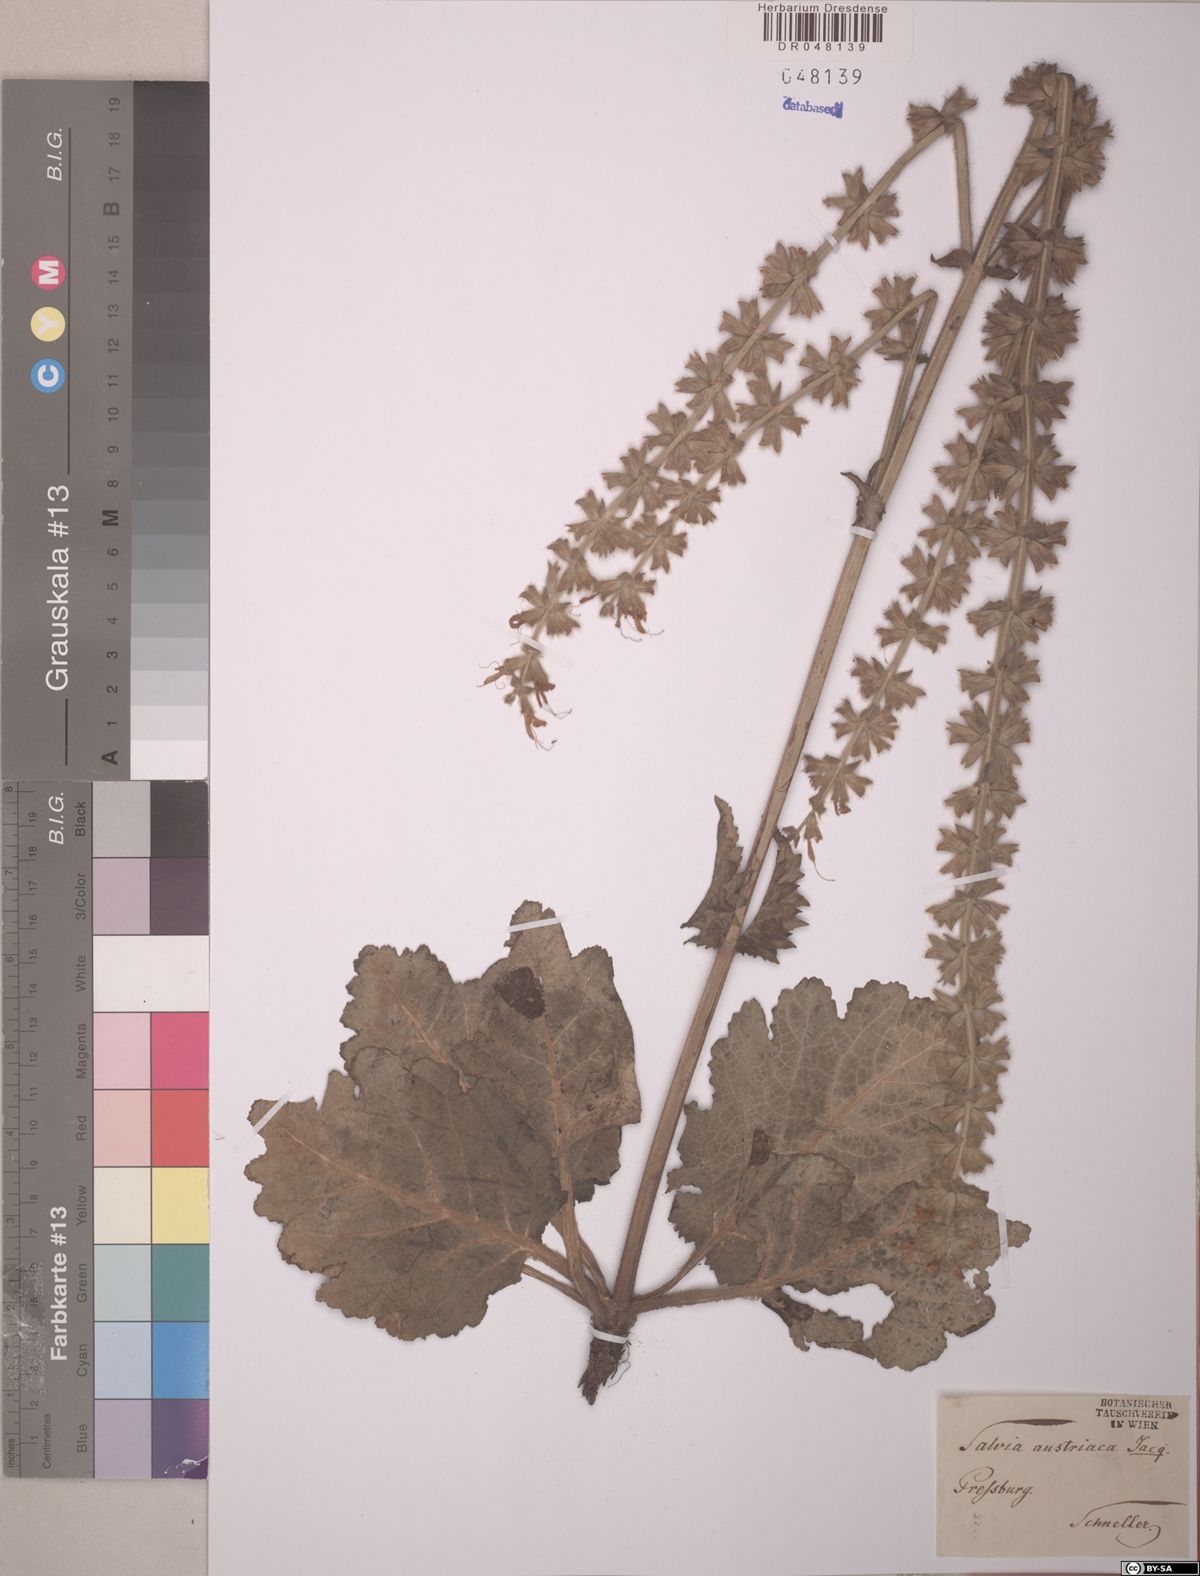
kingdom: Plantae
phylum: Tracheophyta
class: Magnoliopsida
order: Lamiales
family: Lamiaceae
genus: Salvia
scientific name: Salvia austriaca
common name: Austrian sage
